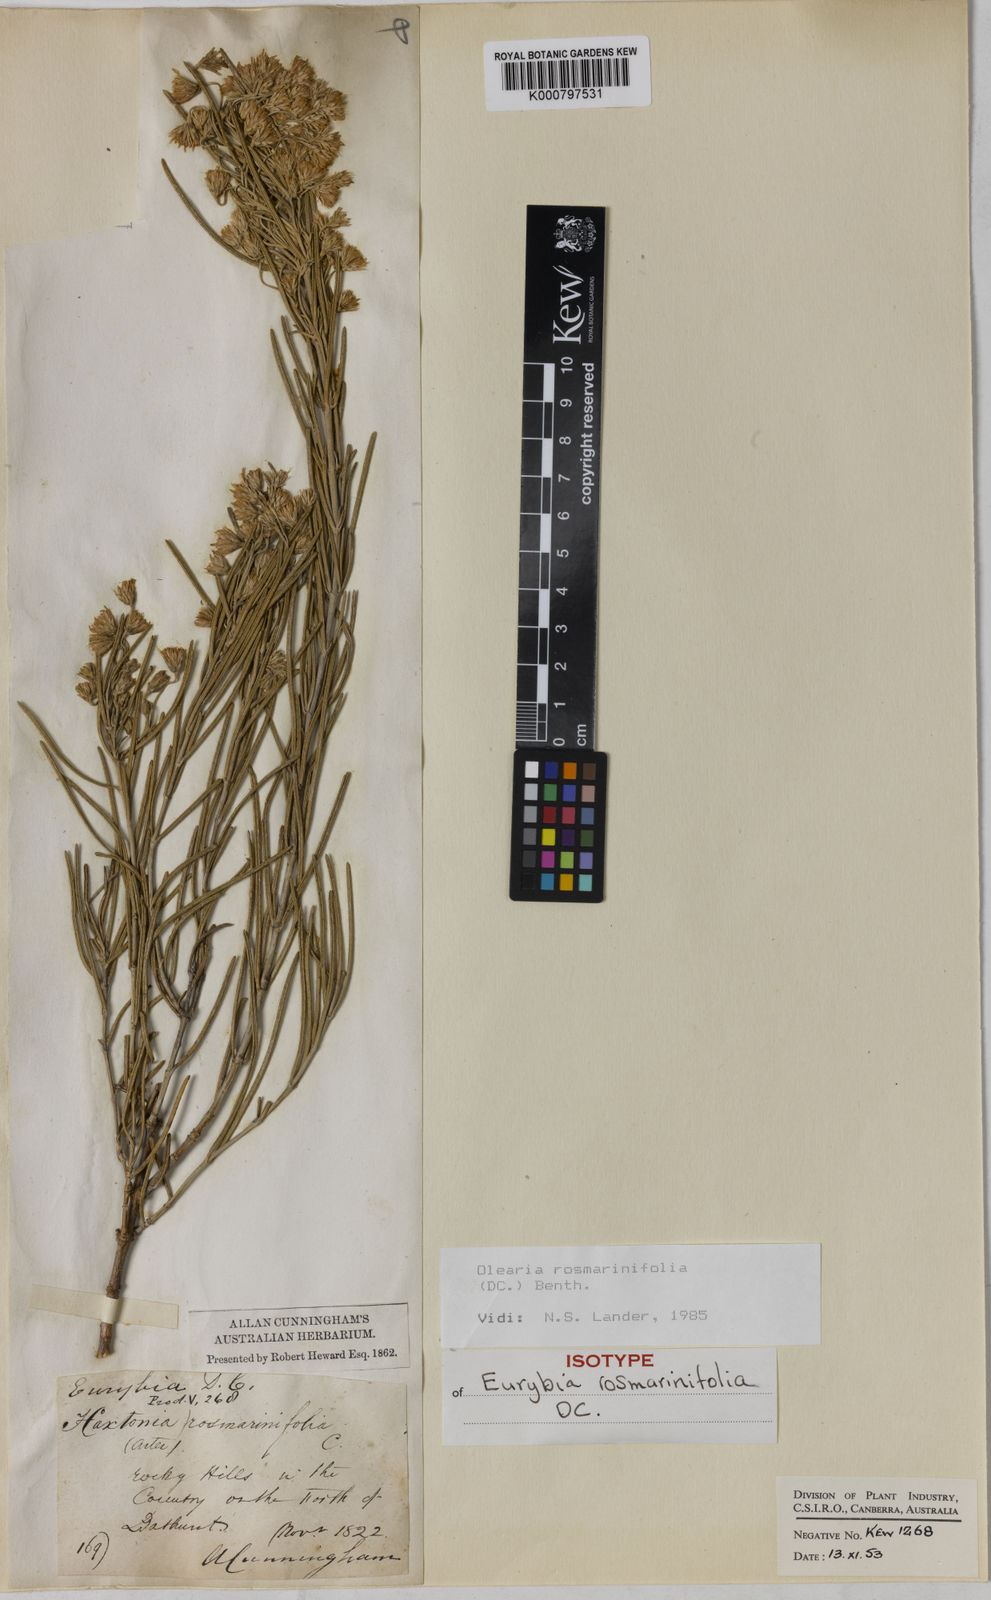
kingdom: Plantae
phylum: Tracheophyta
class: Magnoliopsida
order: Asterales
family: Asteraceae
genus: Olearia
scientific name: Olearia rosmarinifolia
